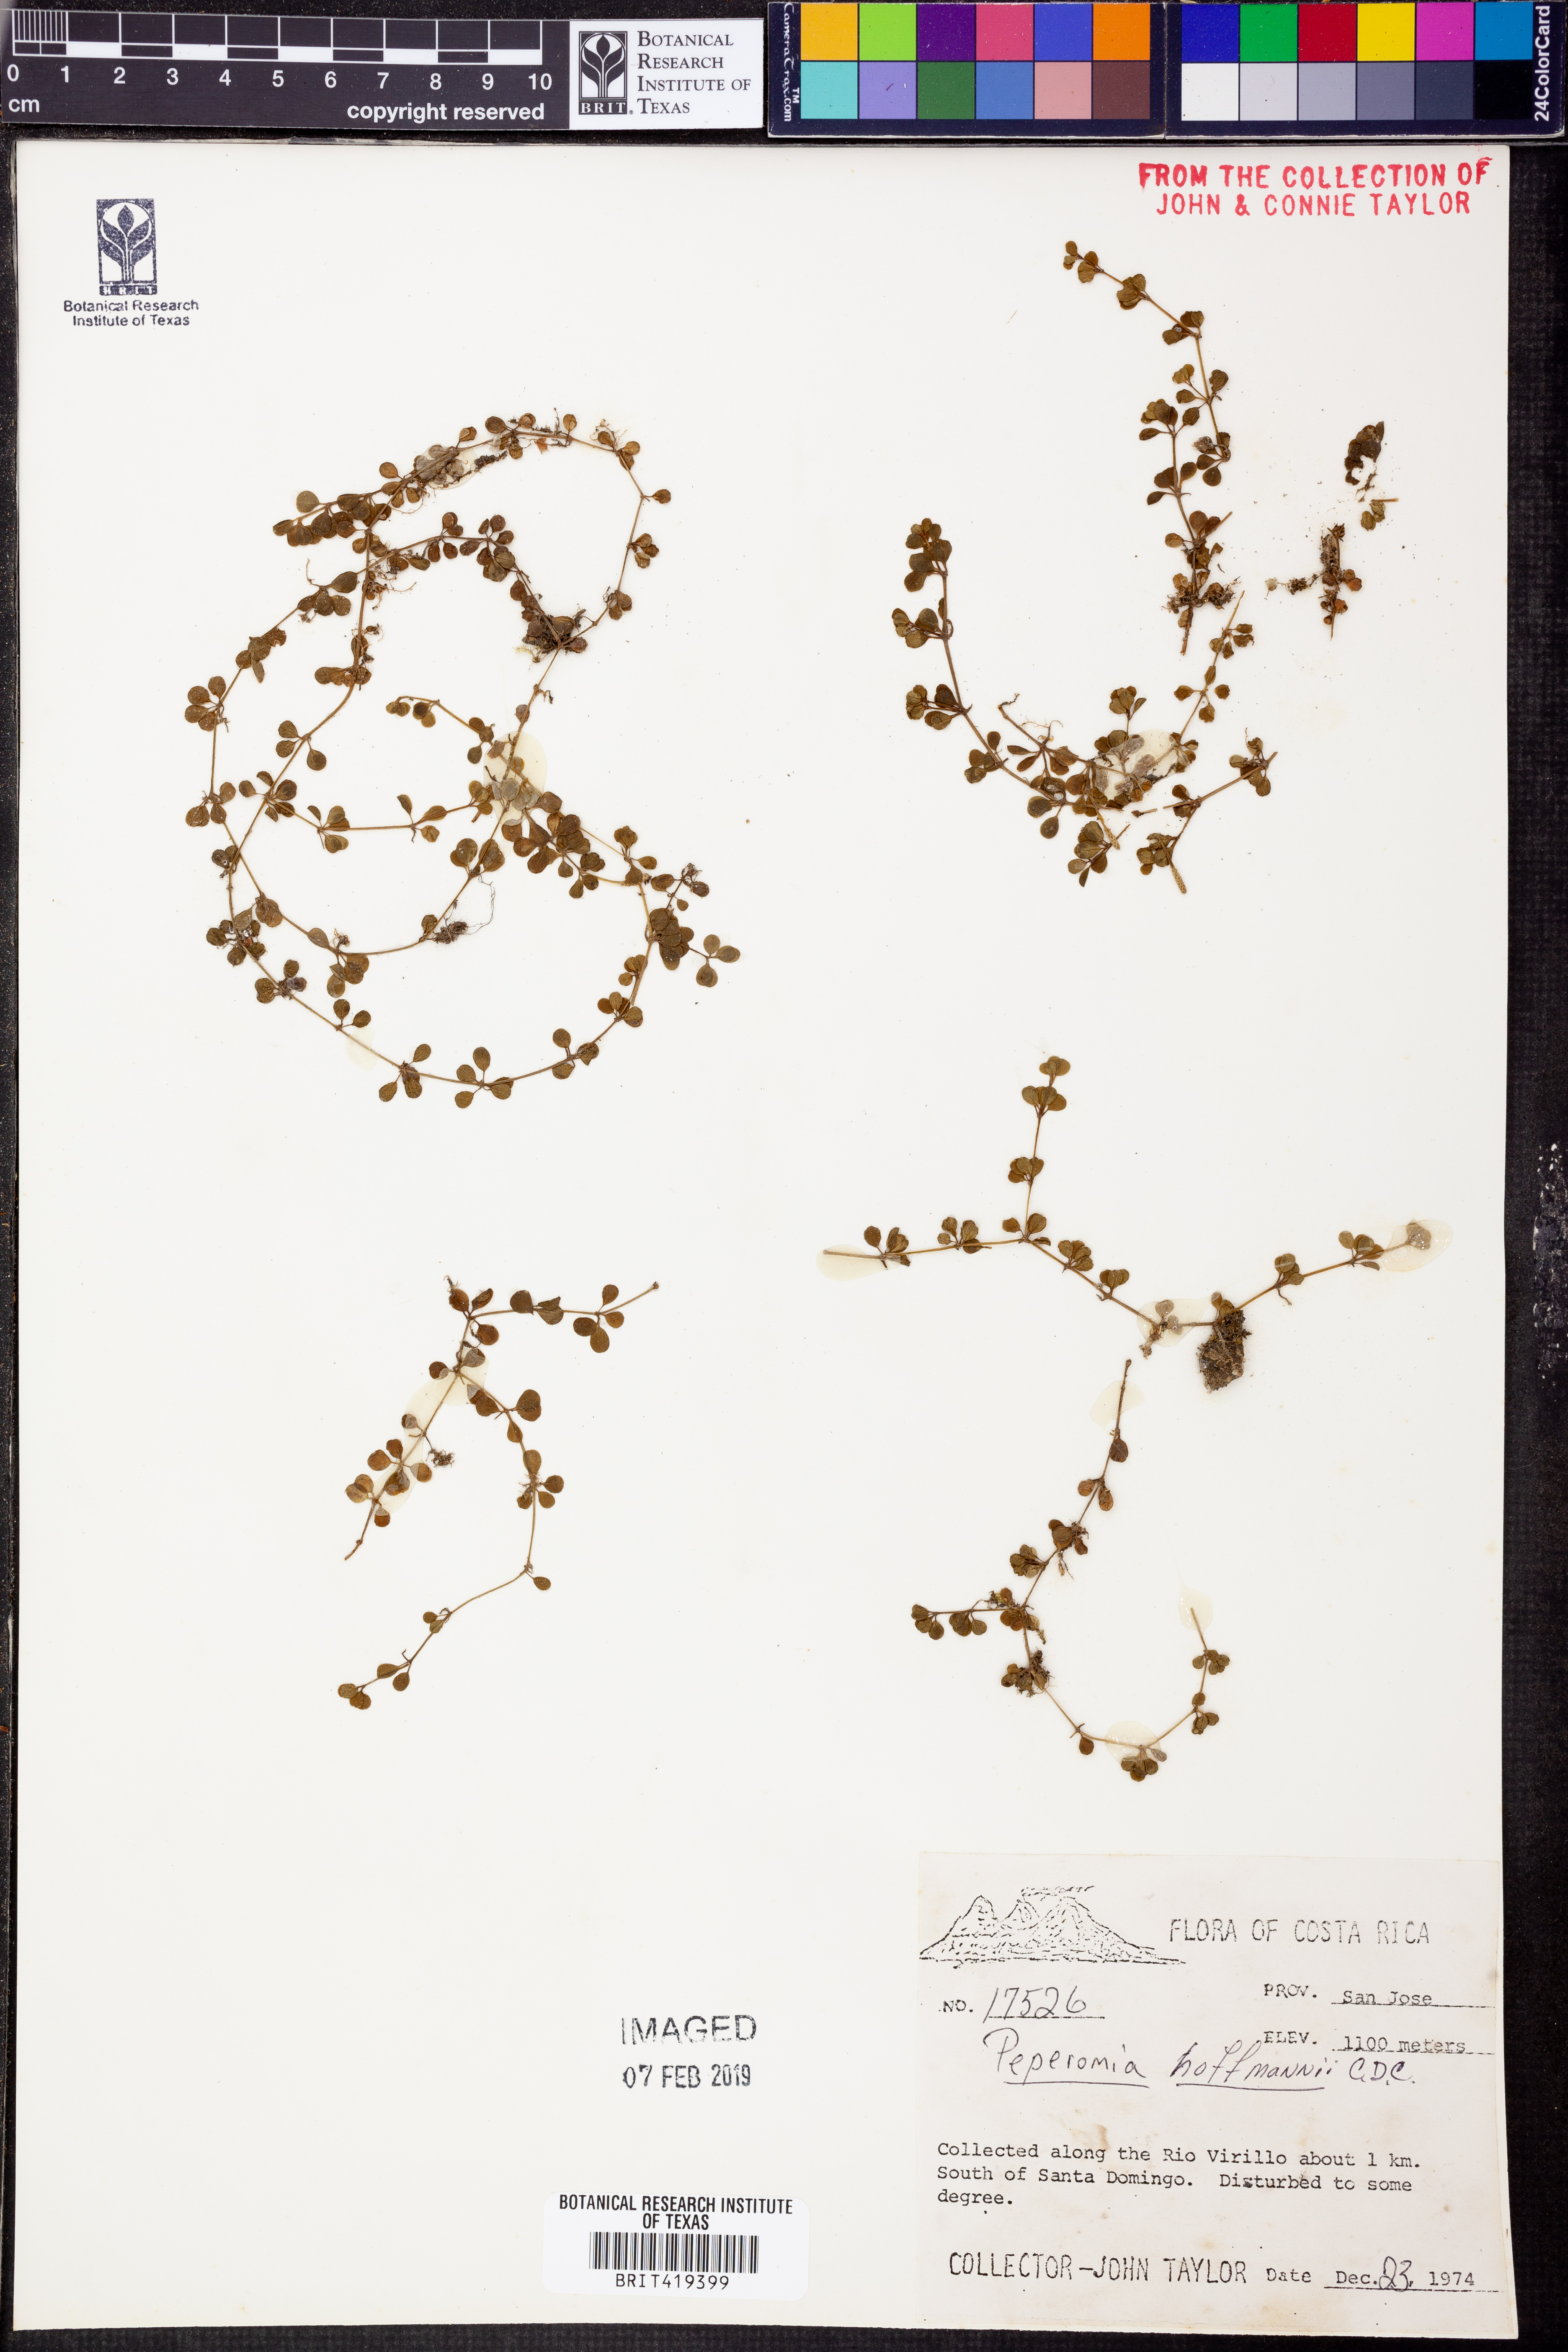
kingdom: Plantae
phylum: Tracheophyta
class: Magnoliopsida
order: Piperales
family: Piperaceae
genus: Peperomia
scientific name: Peperomia hoffmannii
